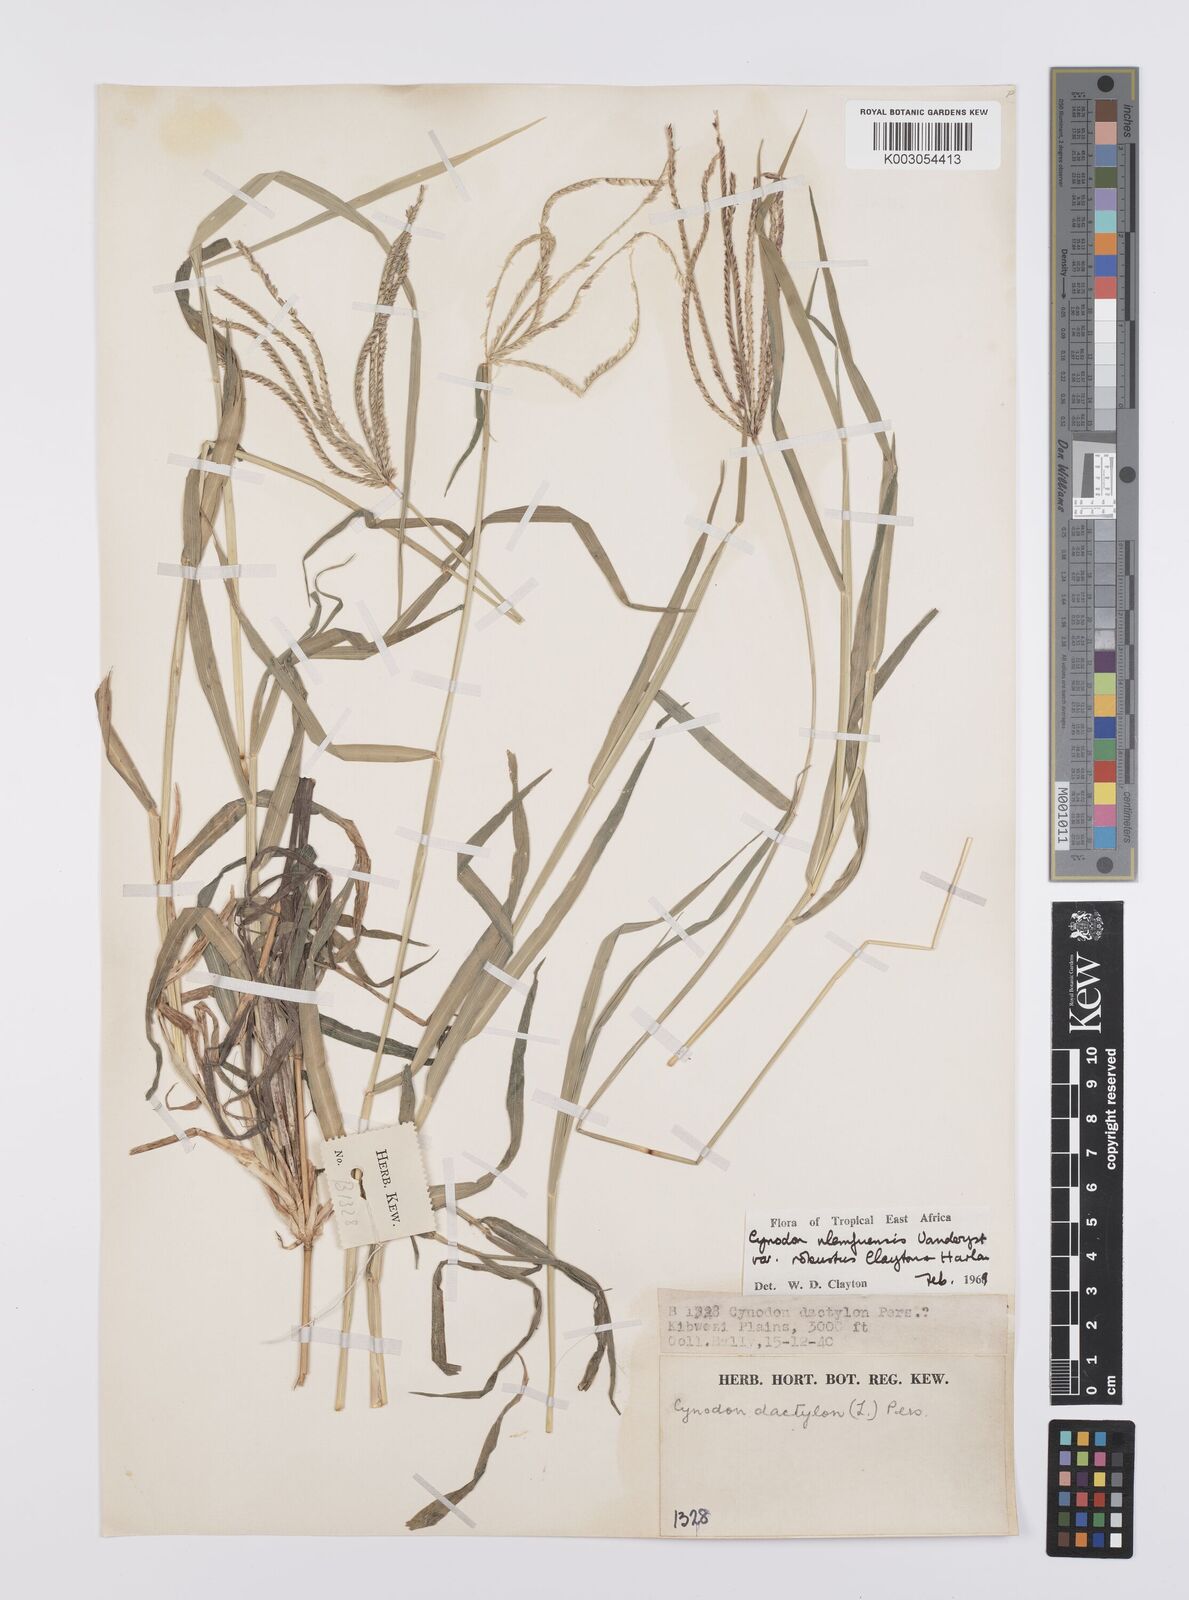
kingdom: Plantae
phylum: Tracheophyta
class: Liliopsida
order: Poales
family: Poaceae
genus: Cynodon
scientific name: Cynodon nlemfuensis
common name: African bermudagrass
